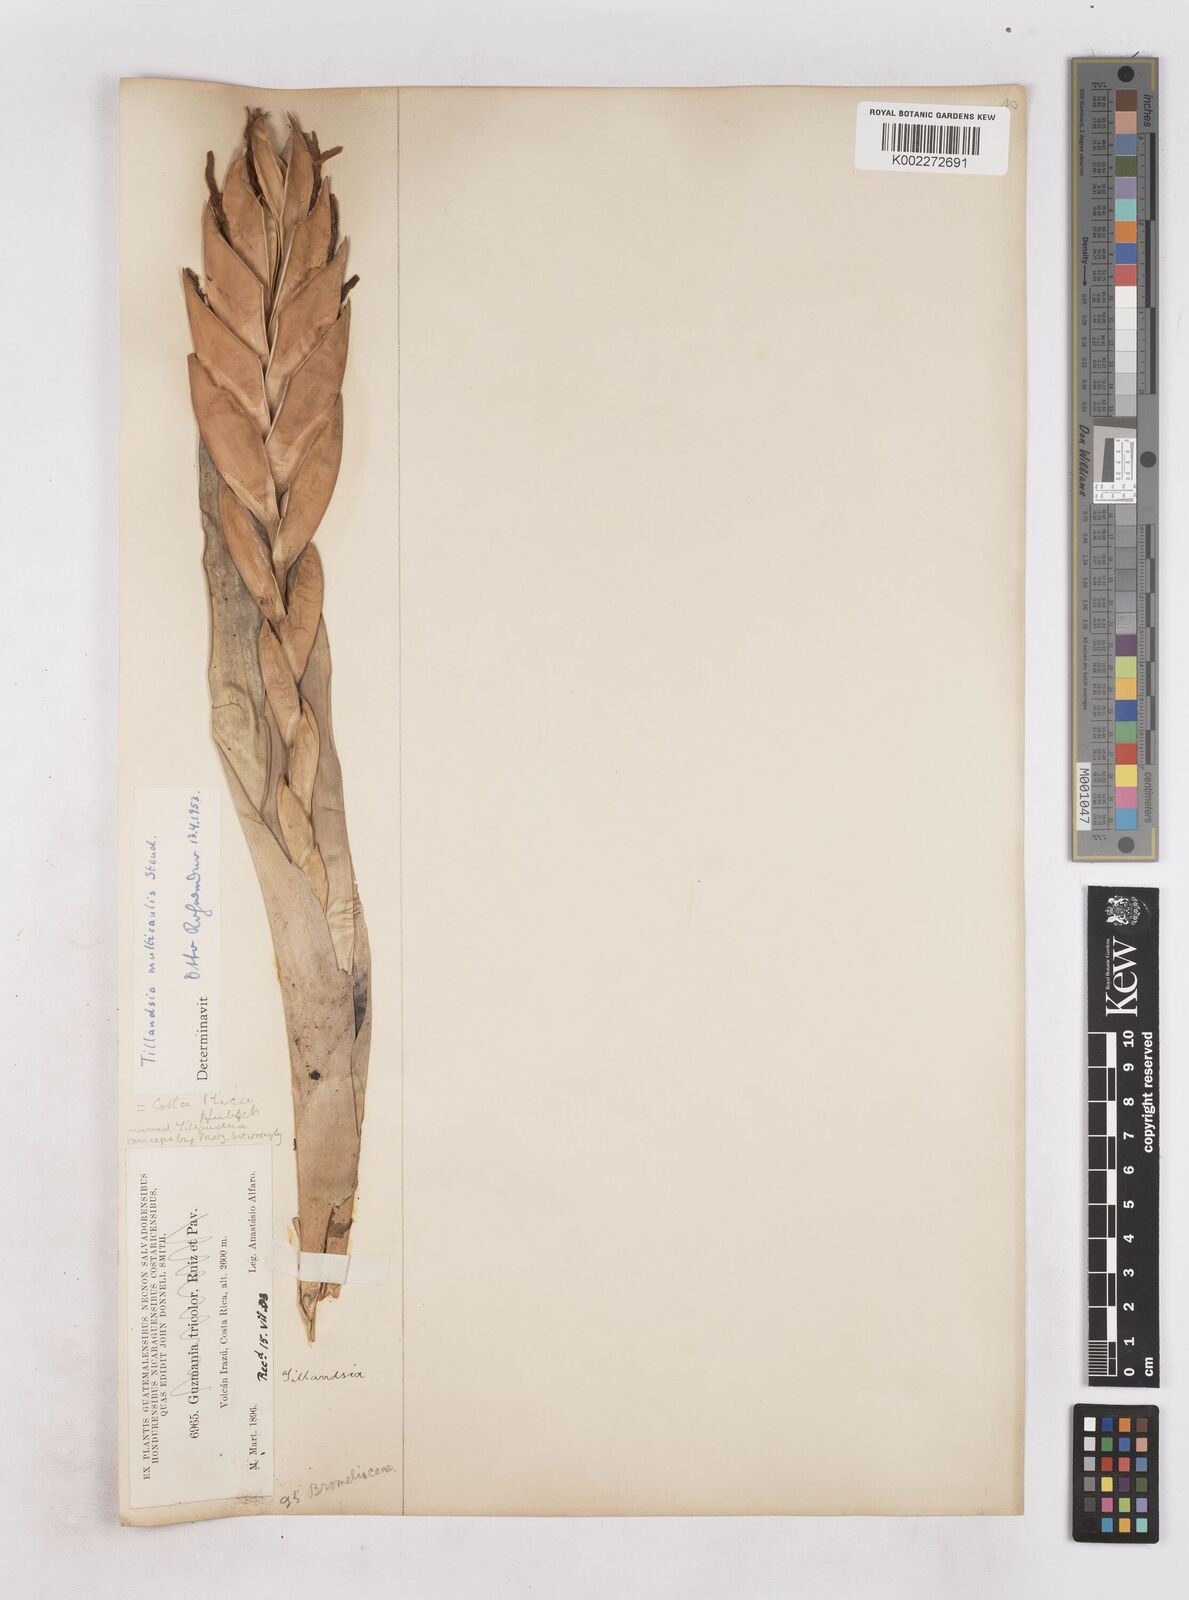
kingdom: Plantae
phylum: Tracheophyta
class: Liliopsida
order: Poales
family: Bromeliaceae
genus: Tillandsia
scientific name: Tillandsia multicaulis
